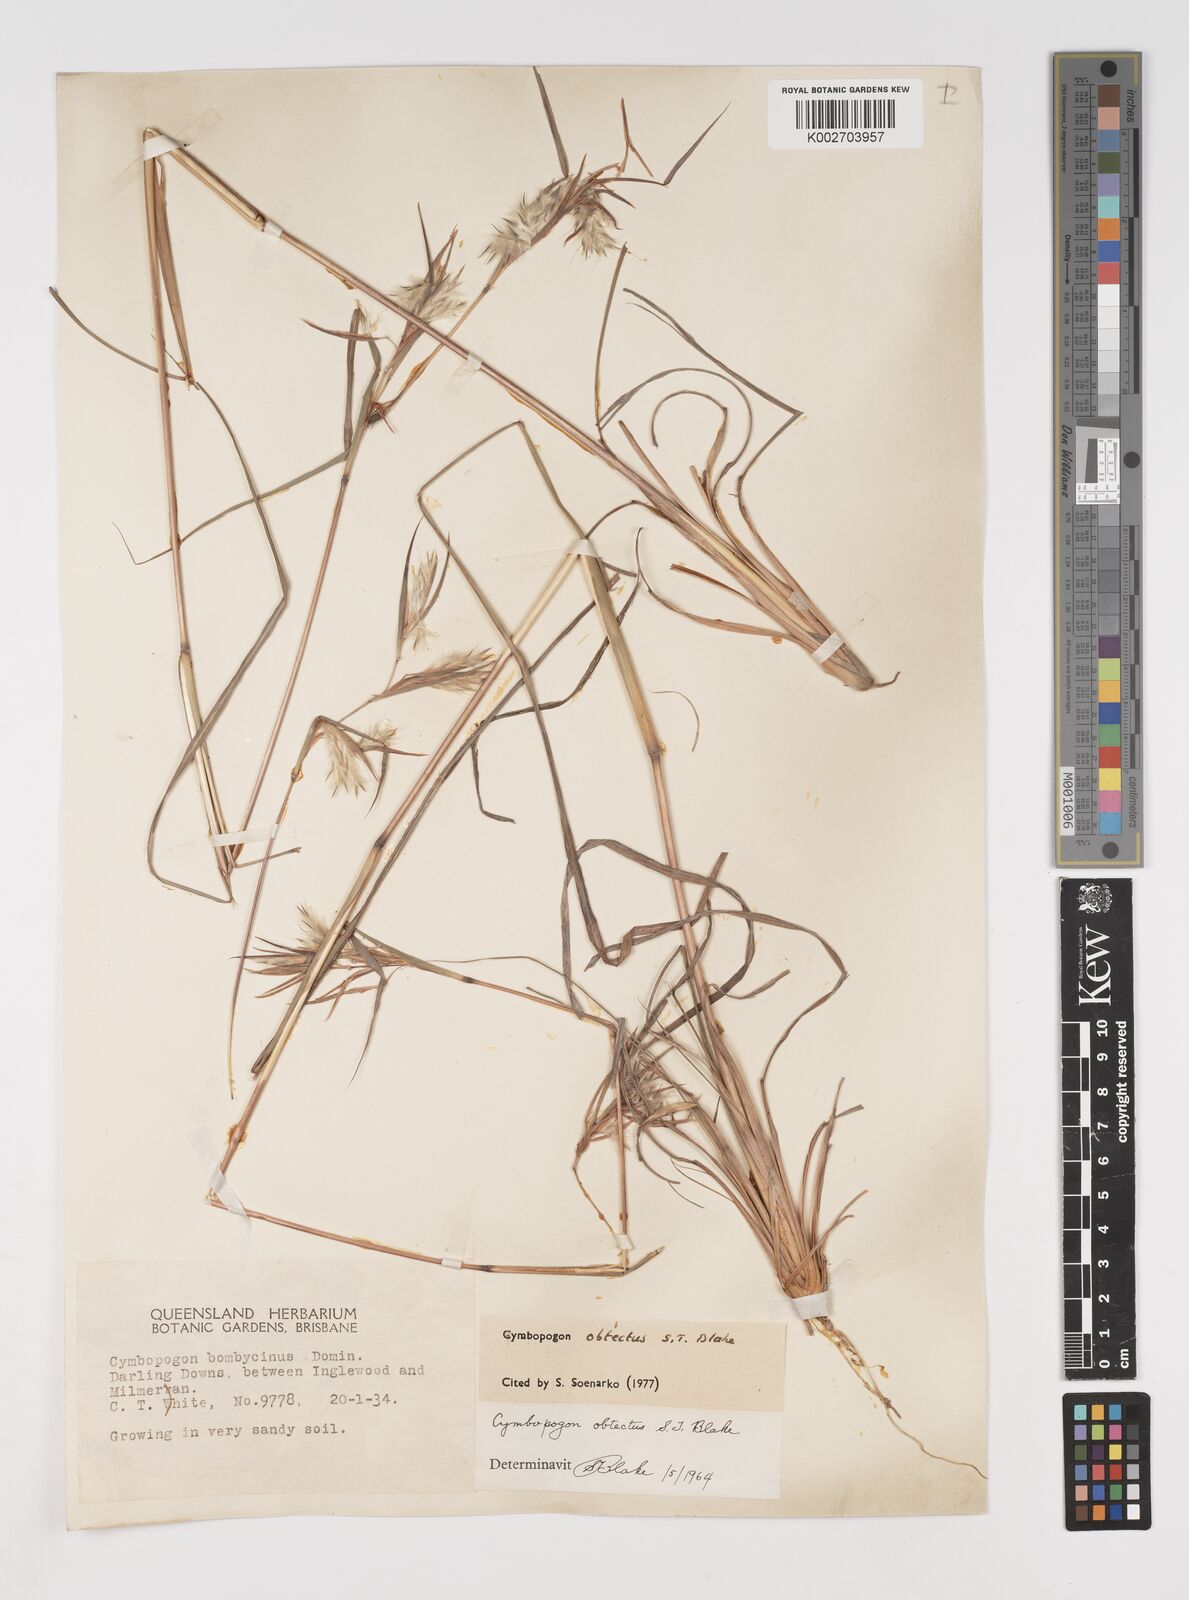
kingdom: Plantae
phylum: Tracheophyta
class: Liliopsida
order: Poales
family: Poaceae
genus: Cymbopogon
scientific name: Cymbopogon obtectus
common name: Silky heads
